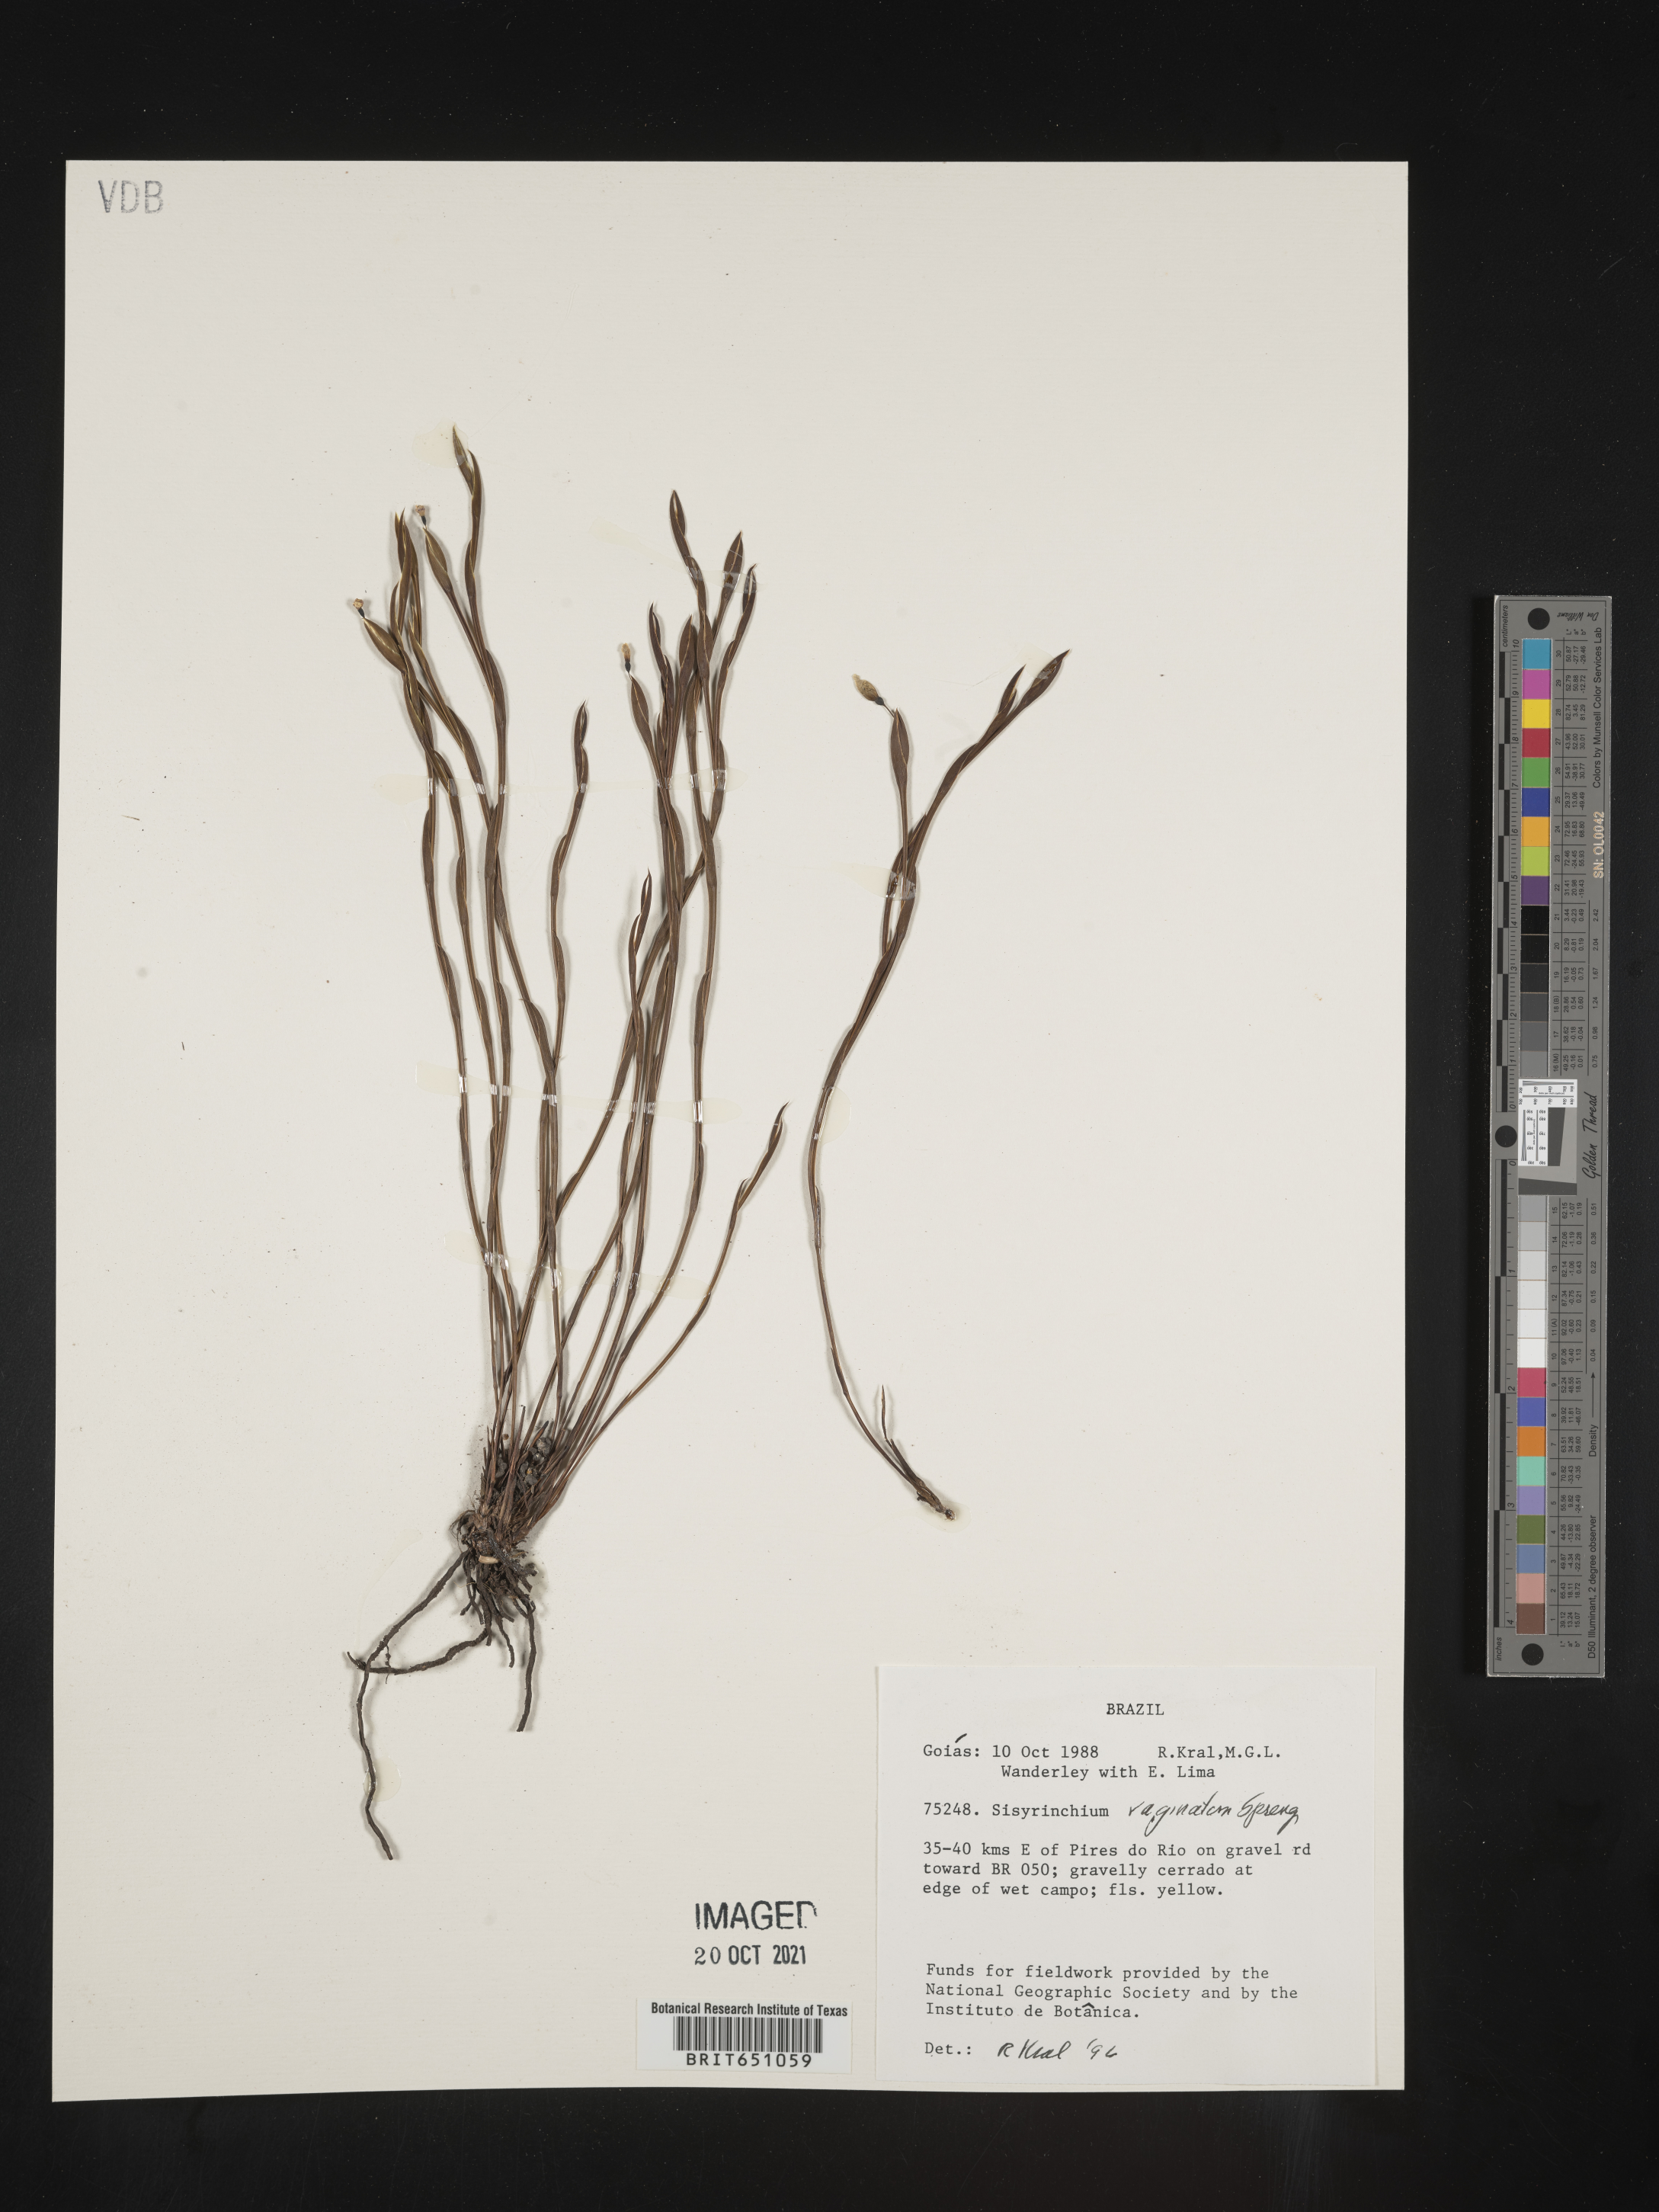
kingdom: Plantae
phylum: Tracheophyta
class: Liliopsida
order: Asparagales
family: Iridaceae
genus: Sisyrinchium
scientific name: Sisyrinchium
